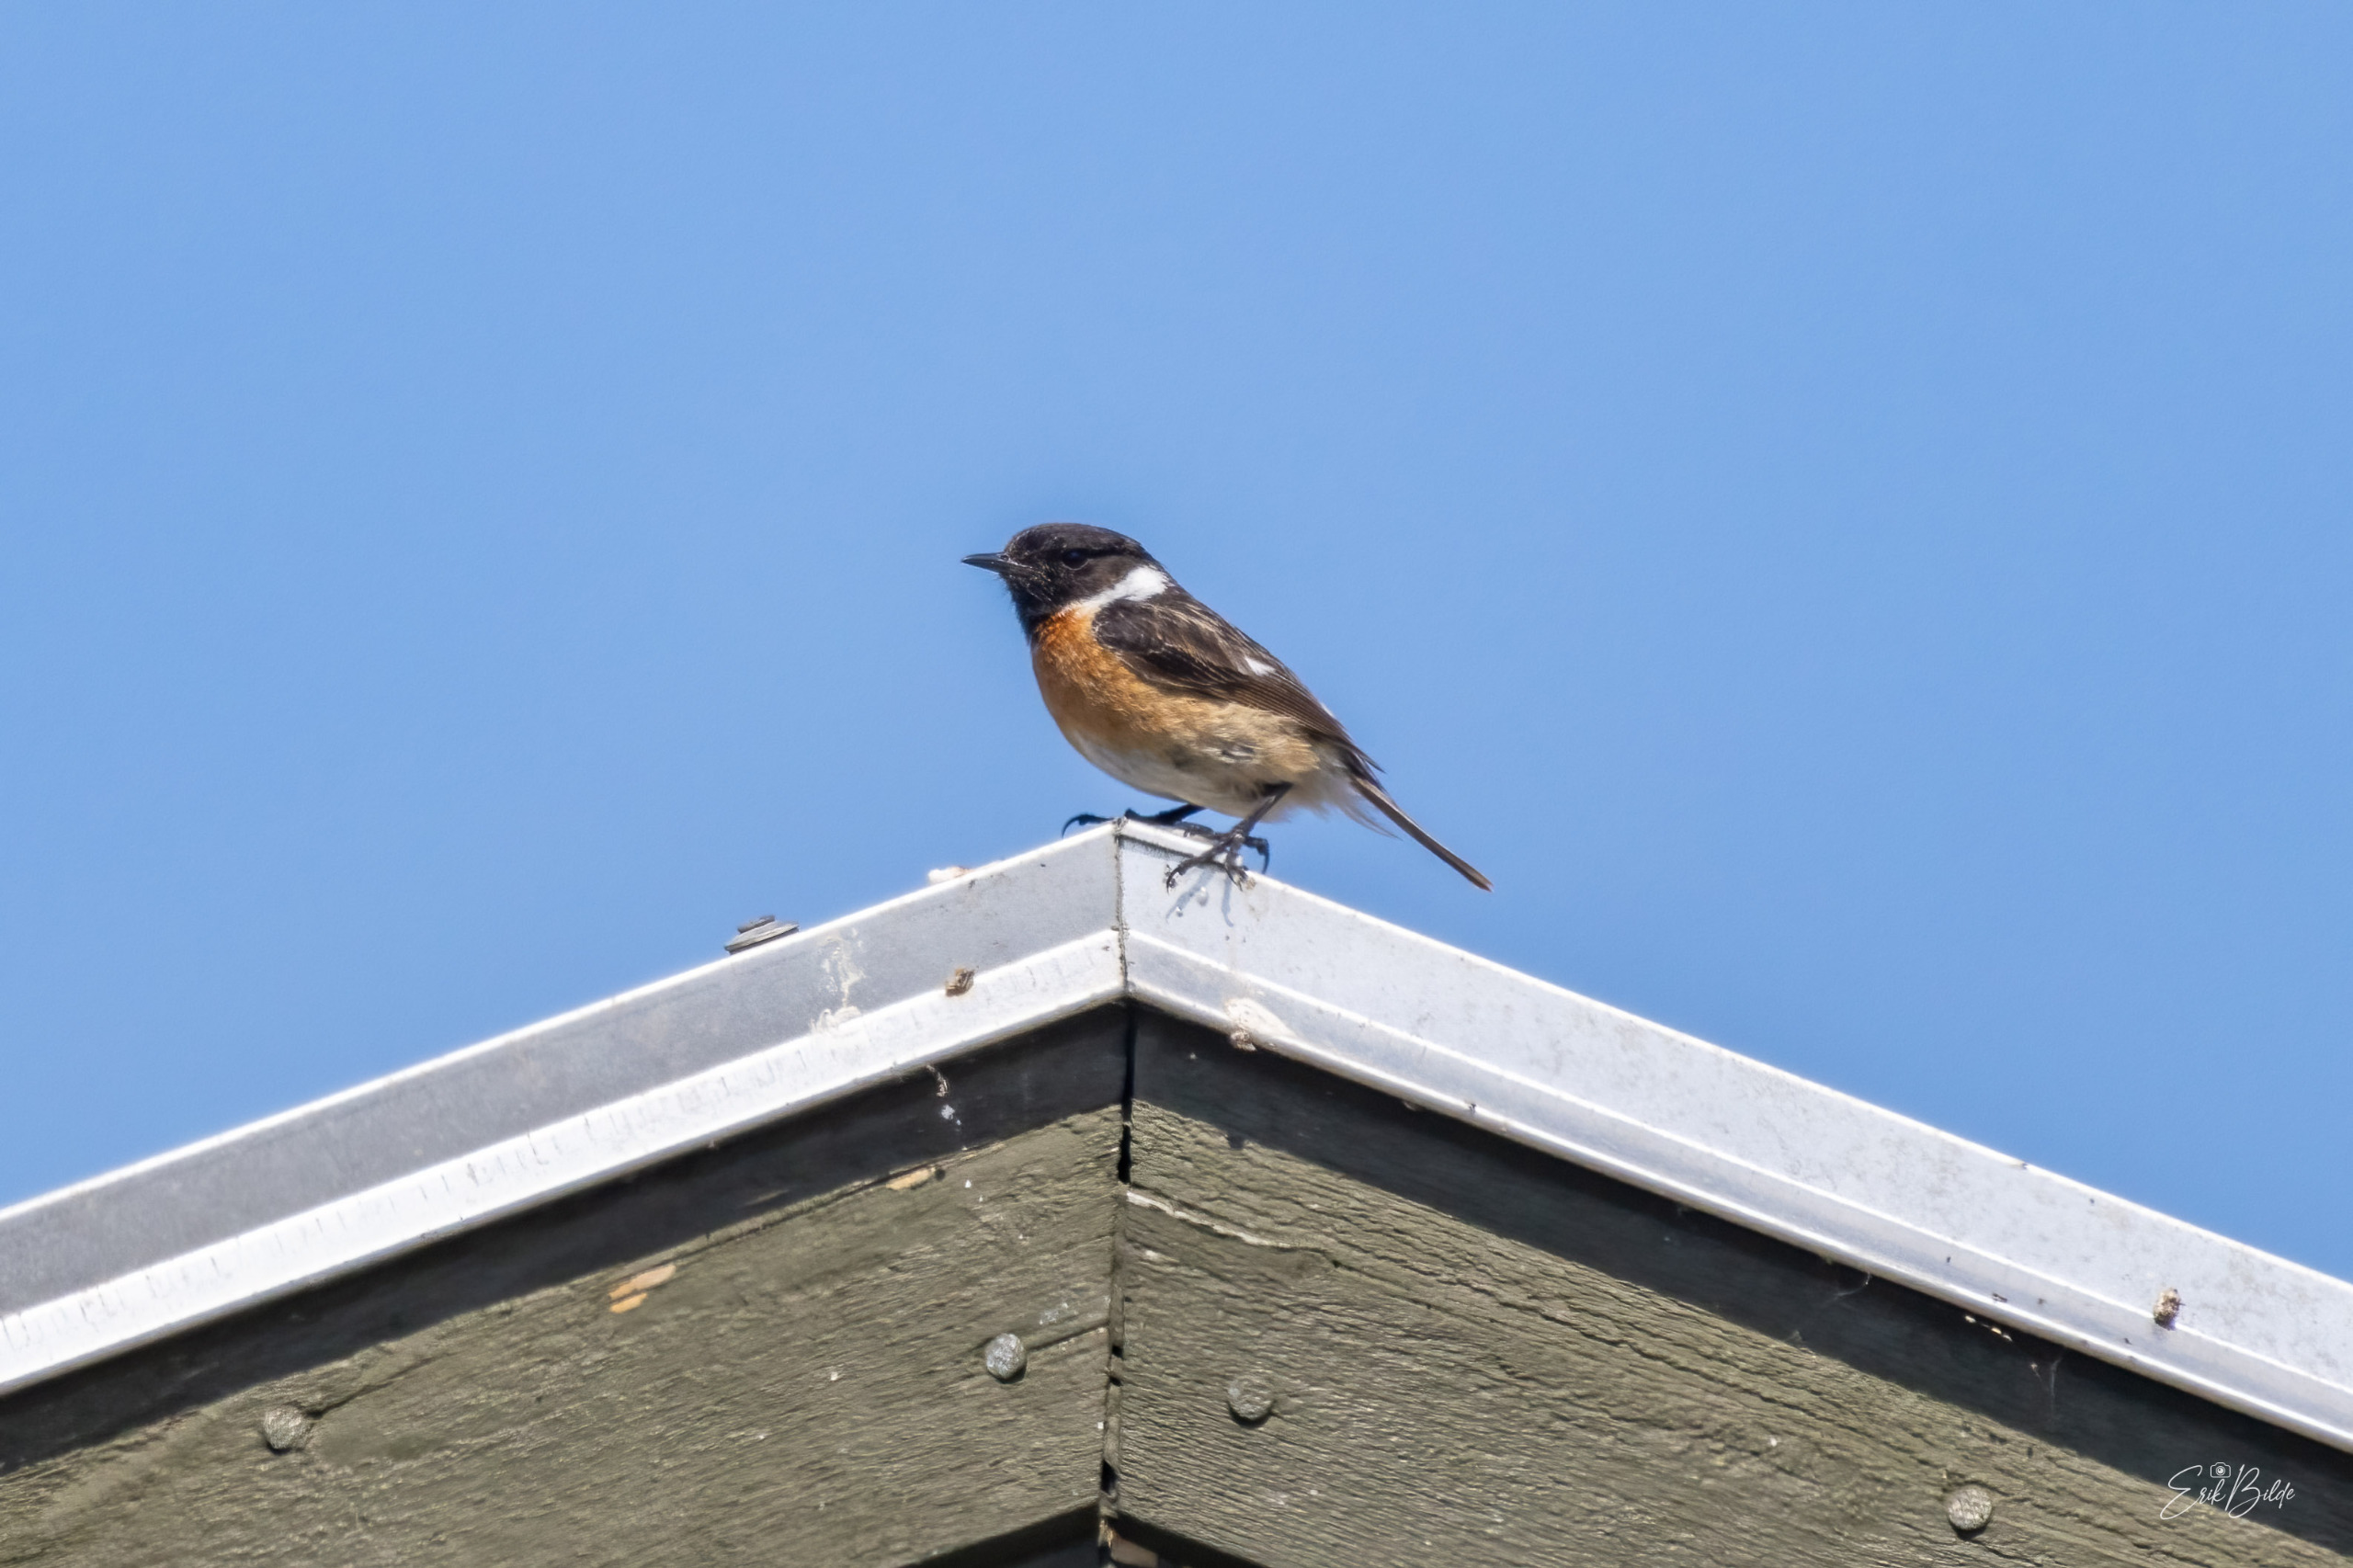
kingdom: Animalia
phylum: Chordata
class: Aves
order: Passeriformes
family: Muscicapidae
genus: Saxicola
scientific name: Saxicola rubicola
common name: Sortstrubet bynkefugl
